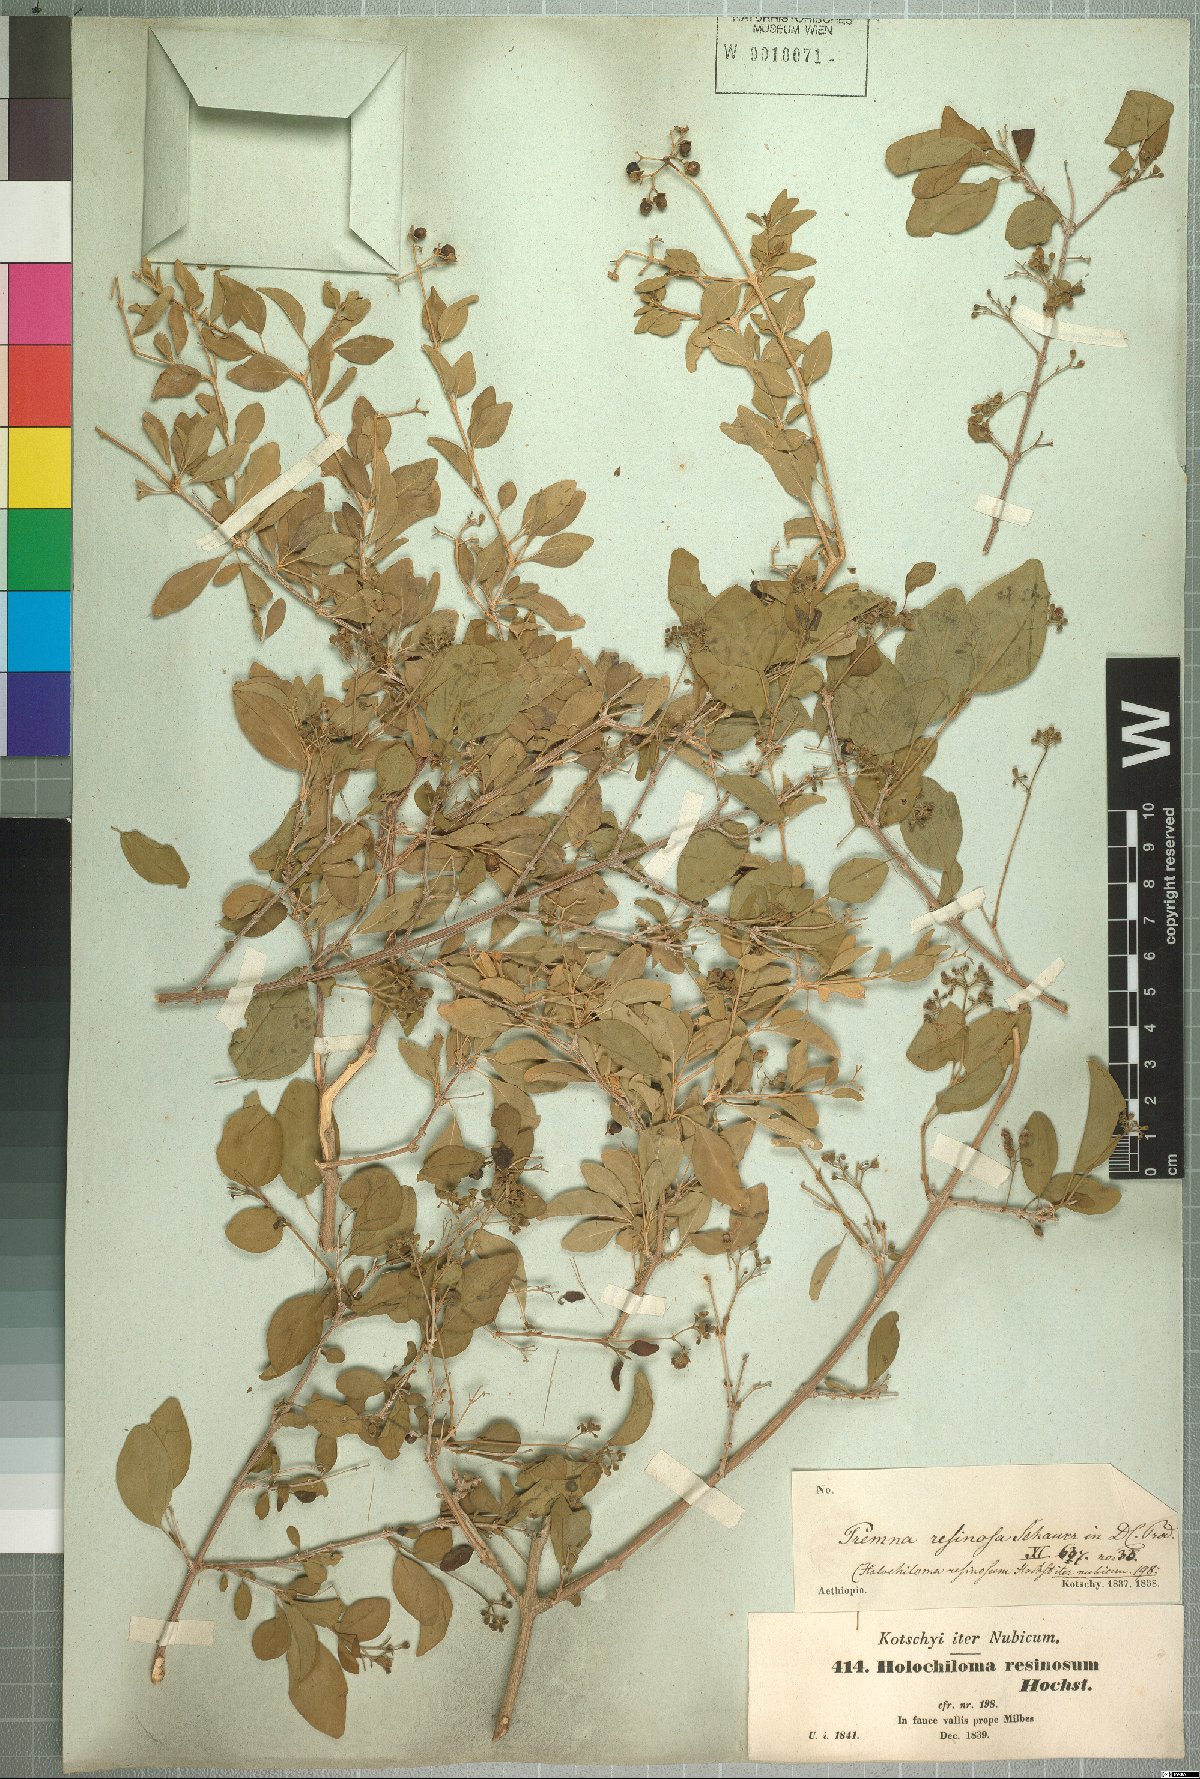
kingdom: Plantae
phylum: Tracheophyta
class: Magnoliopsida
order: Lamiales
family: Lamiaceae
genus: Premna
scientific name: Premna resinosa
